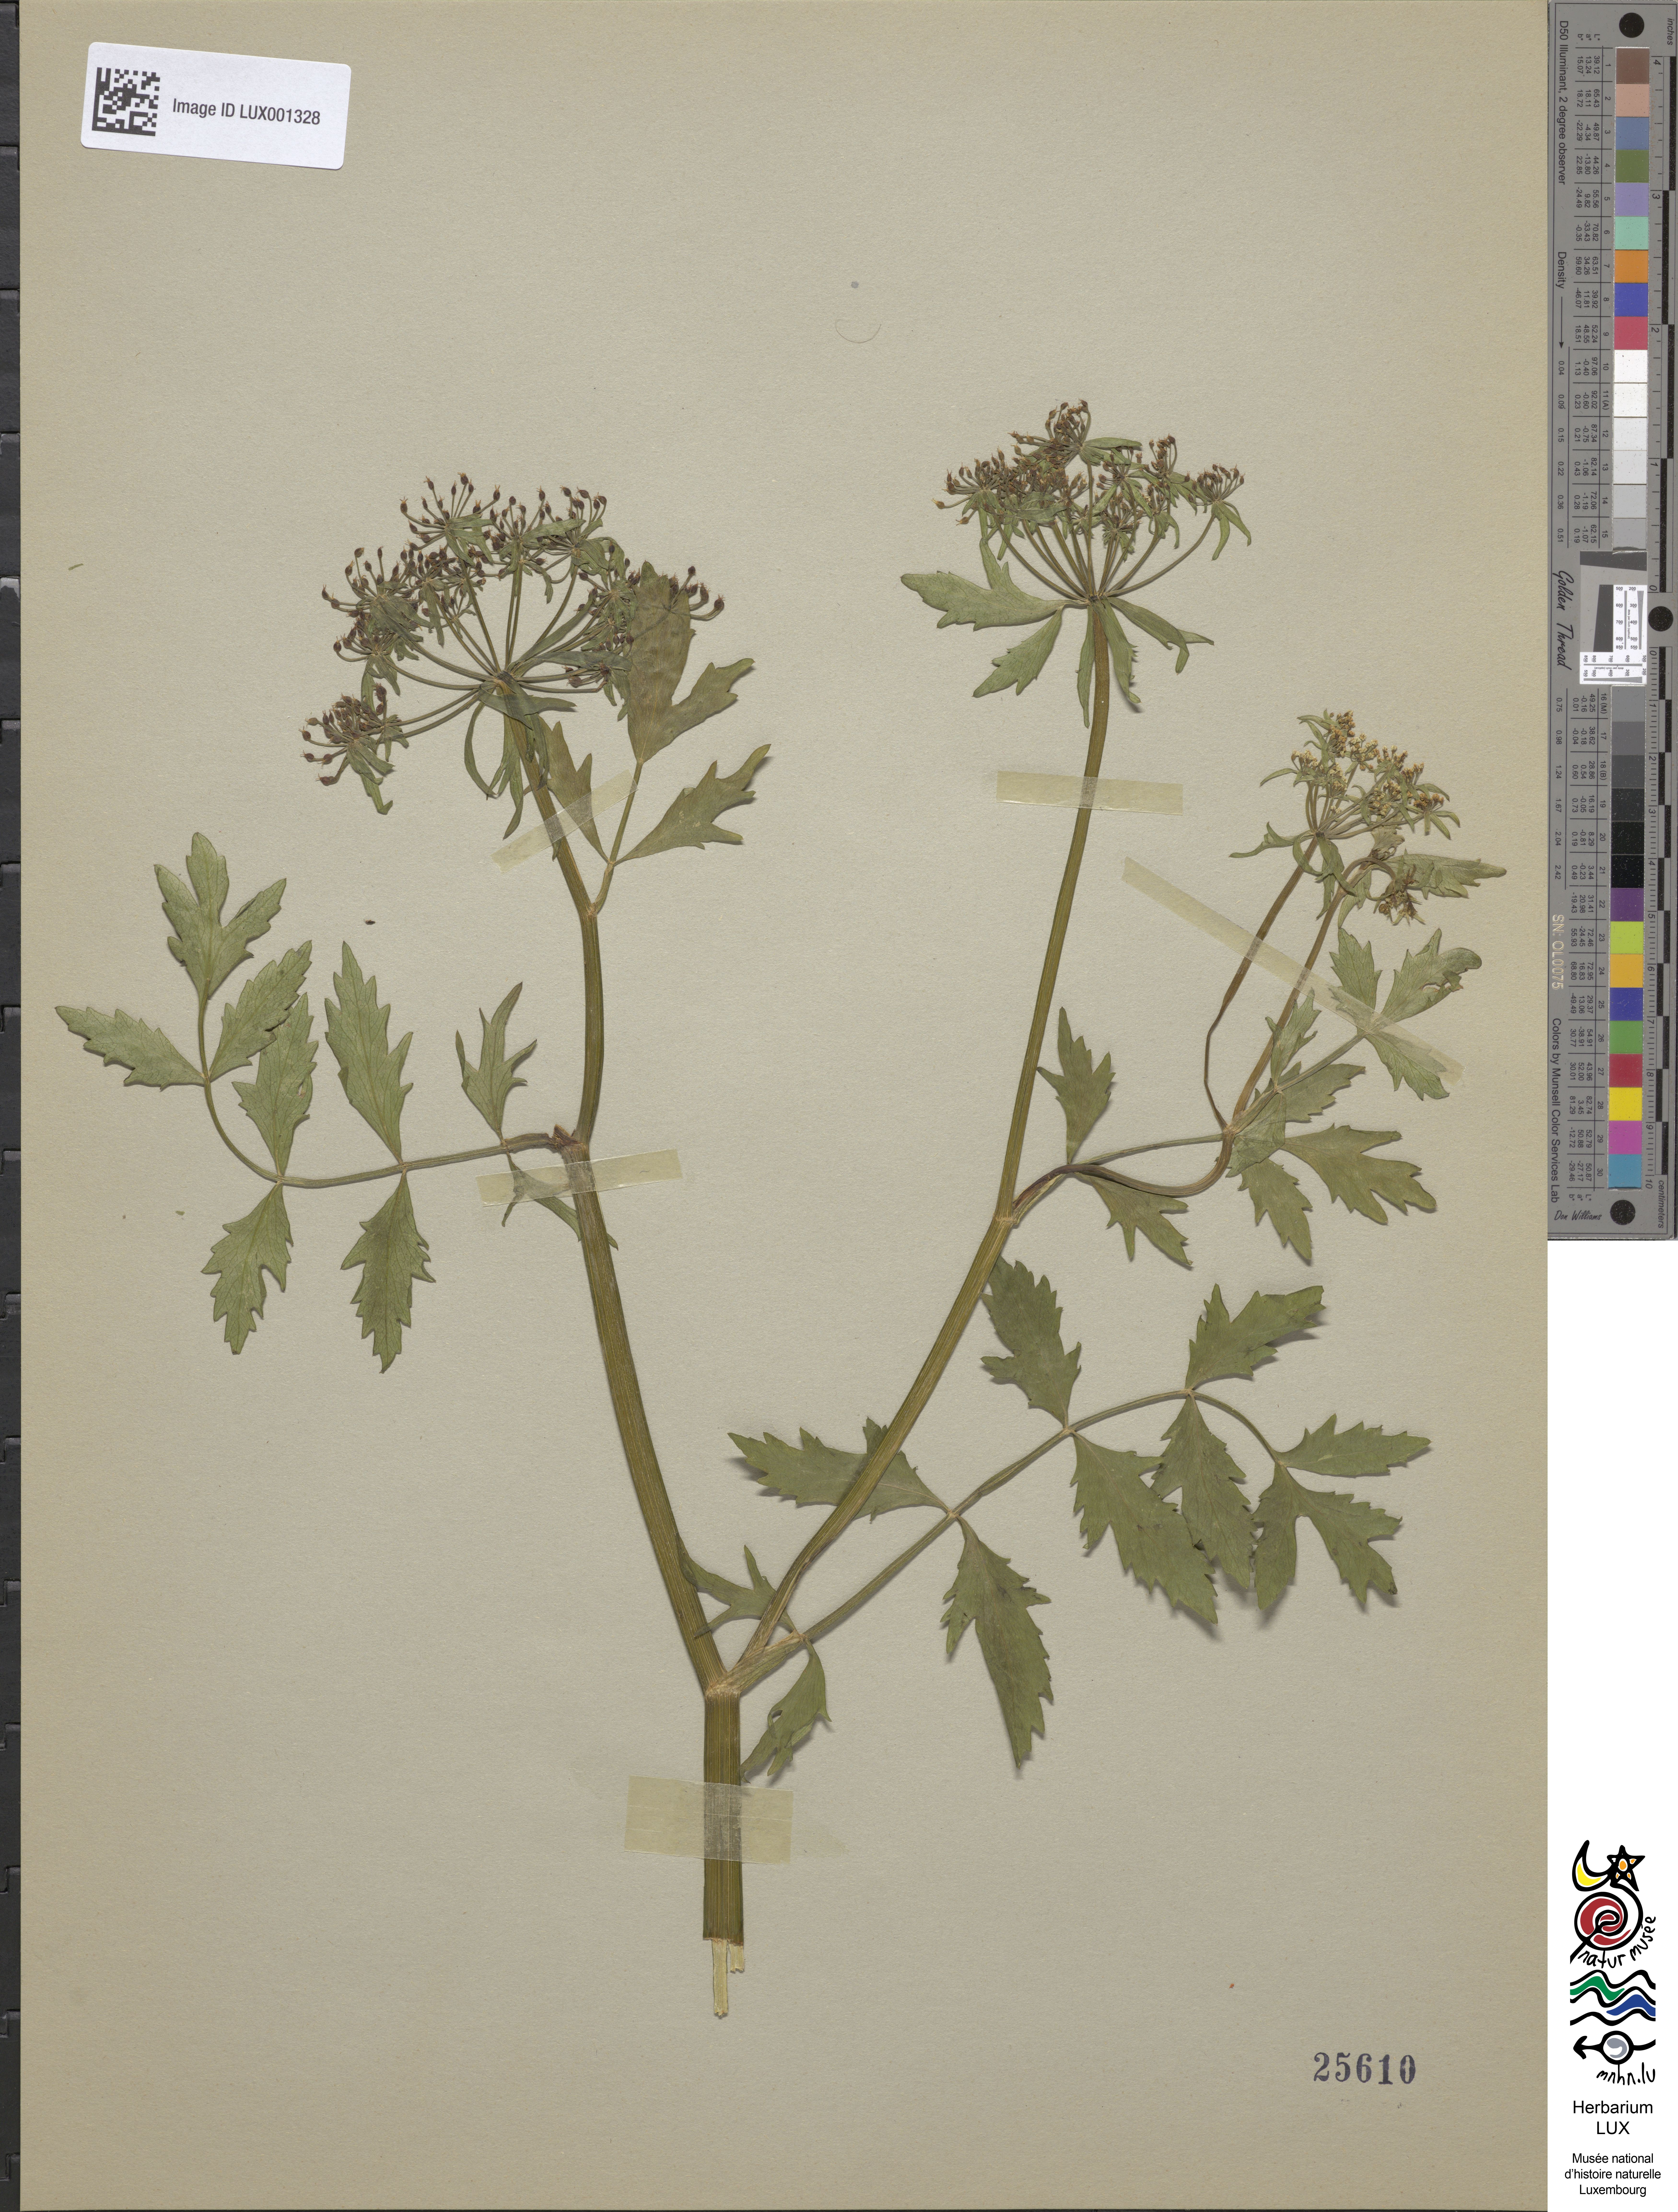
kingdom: Plantae
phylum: Tracheophyta
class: Magnoliopsida
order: Apiales
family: Apiaceae
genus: Berula
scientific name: Berula erecta
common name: Lesser water-parsnip
